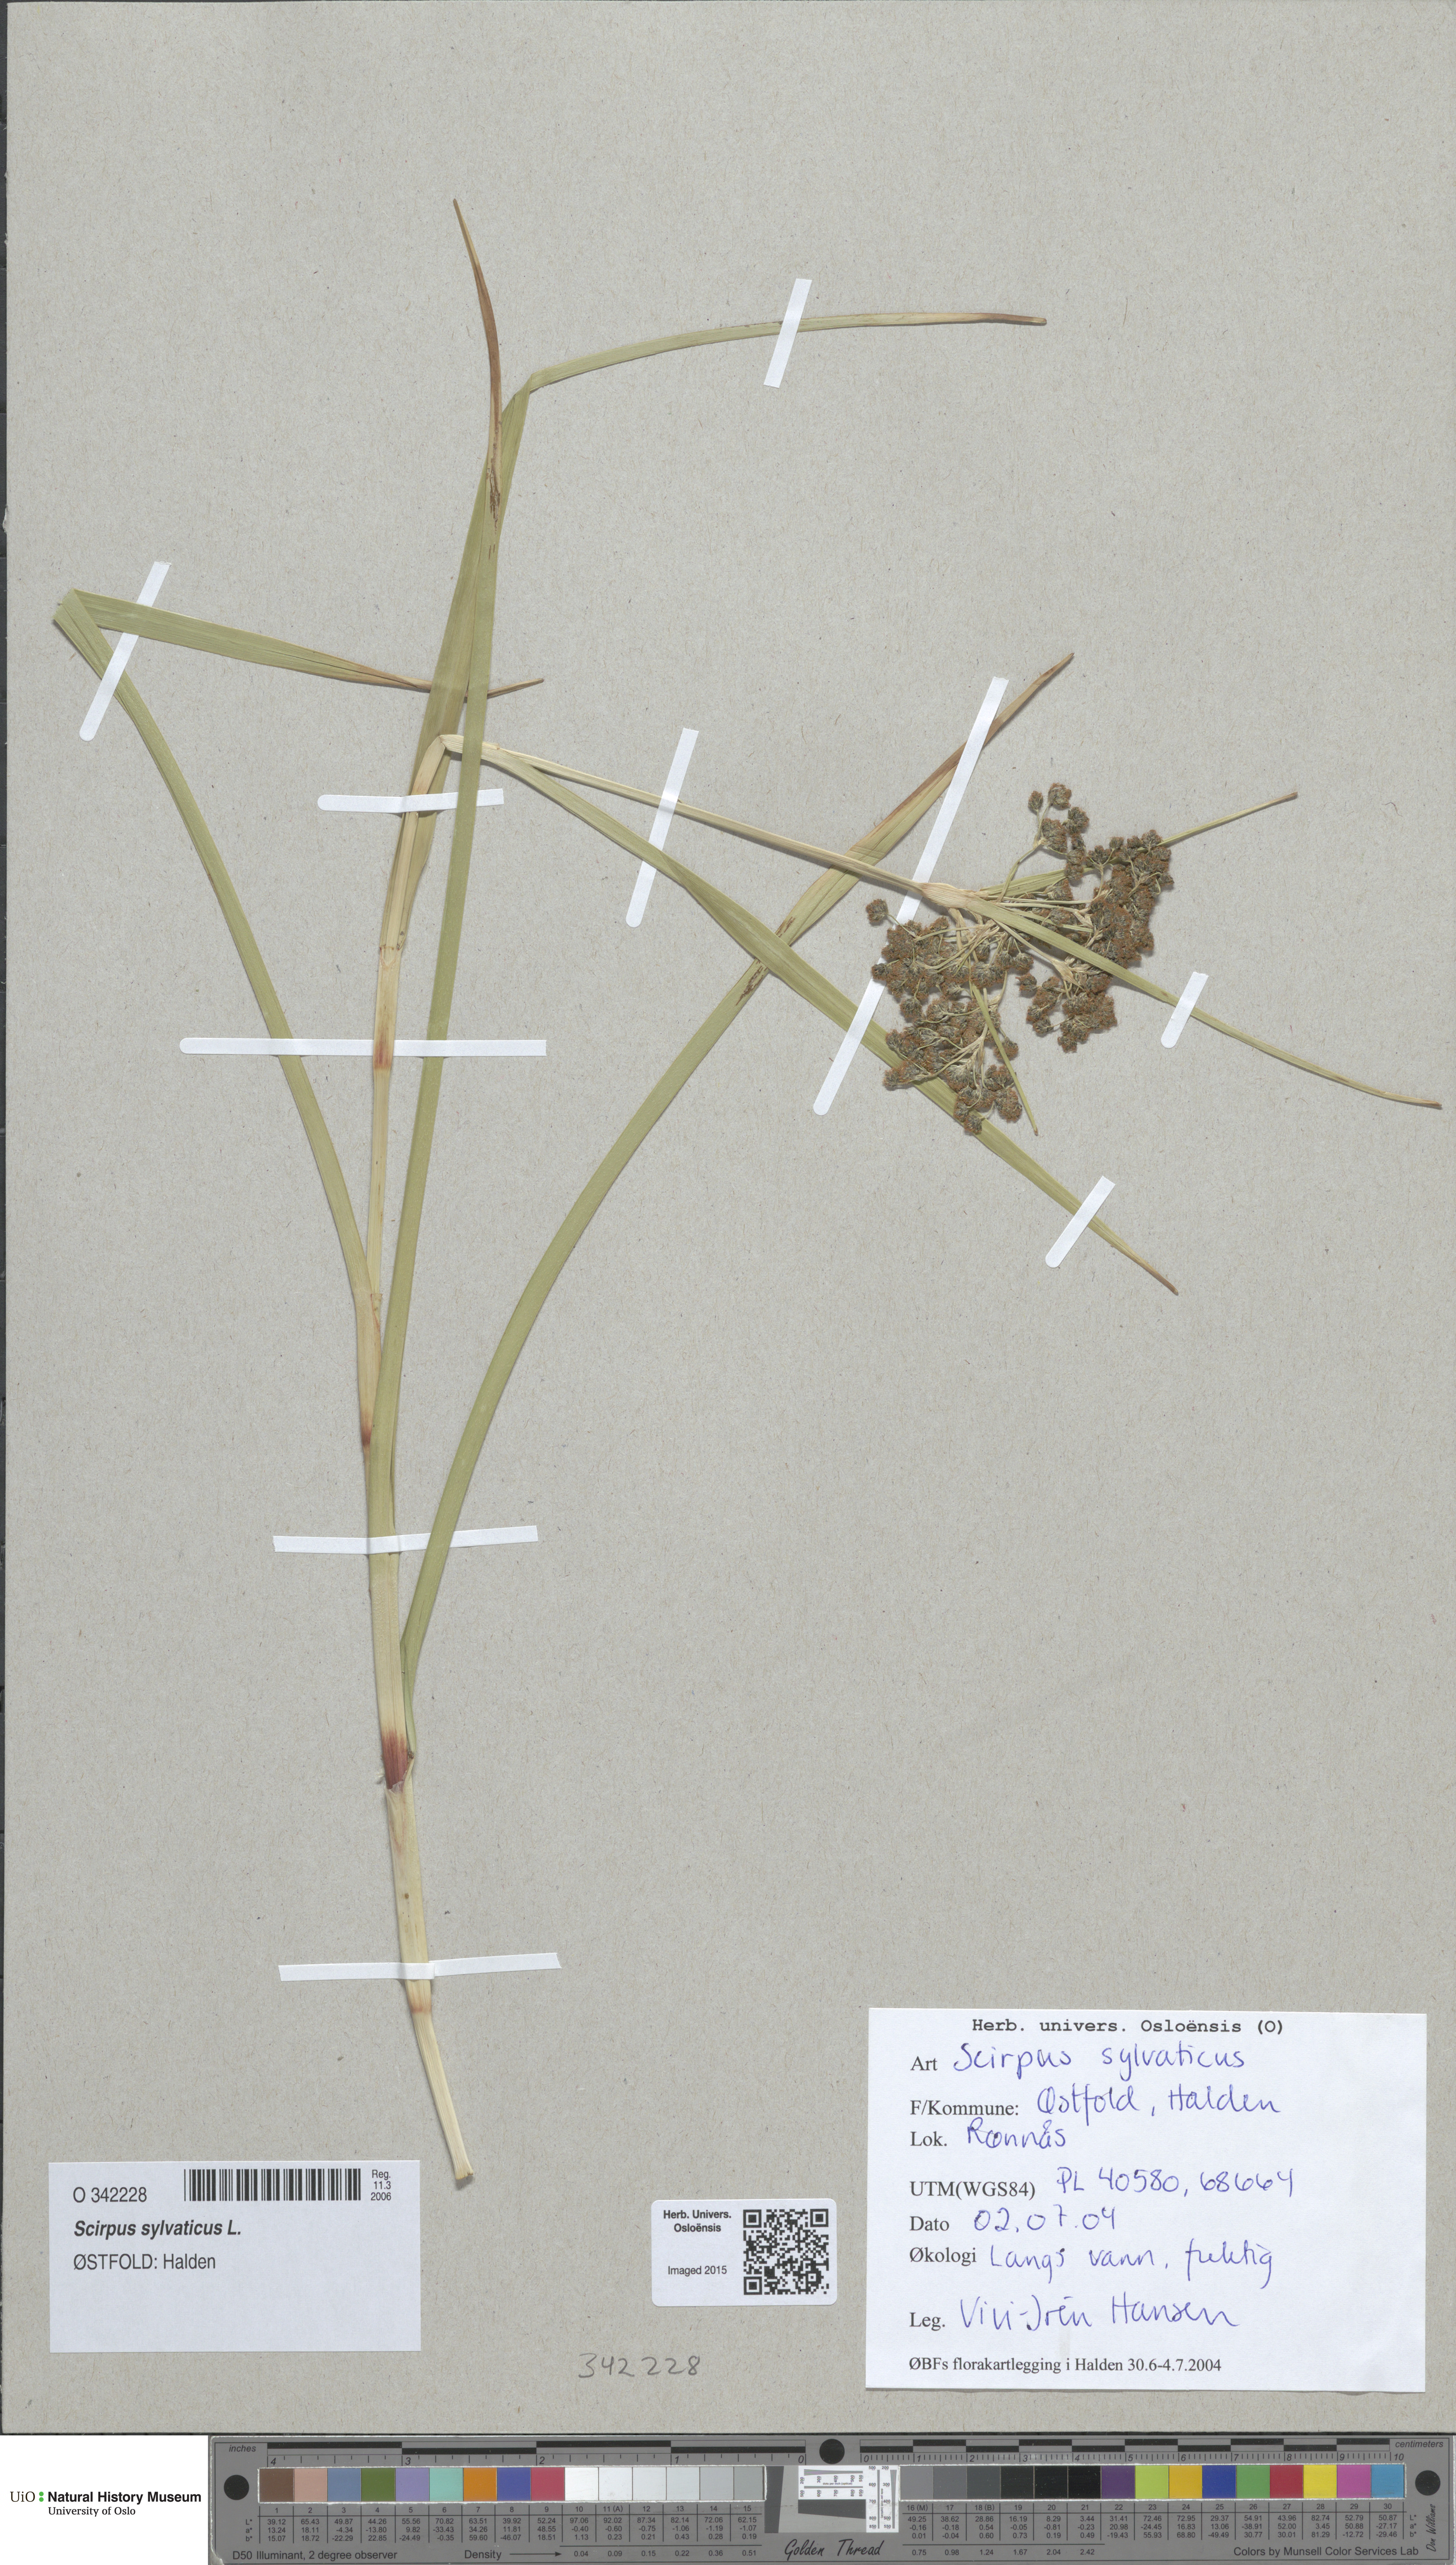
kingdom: Plantae
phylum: Tracheophyta
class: Liliopsida
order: Poales
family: Cyperaceae
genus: Scirpus
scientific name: Scirpus sylvaticus
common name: Wood club-rush
